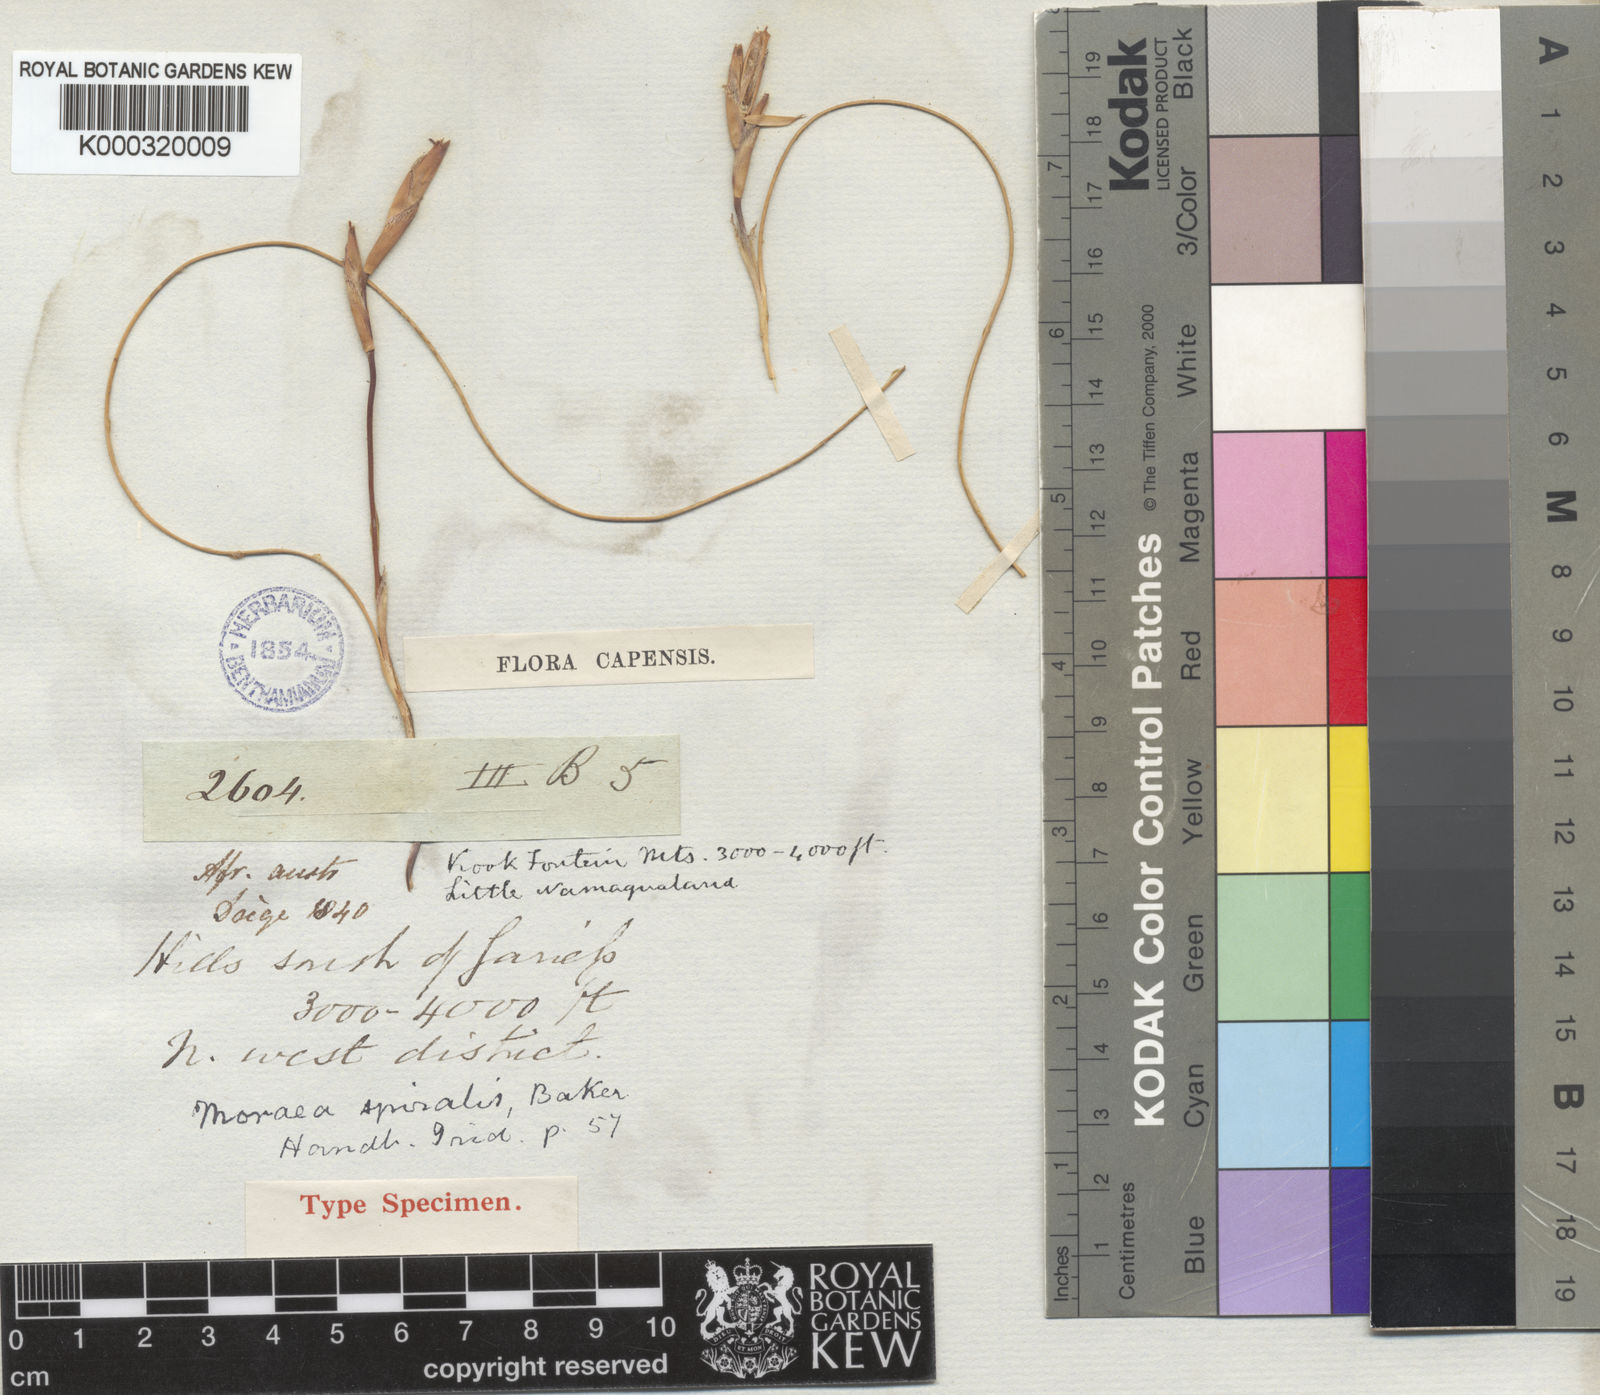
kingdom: Plantae
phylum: Tracheophyta
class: Liliopsida
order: Asparagales
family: Iridaceae
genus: Moraea
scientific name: Moraea herrei
